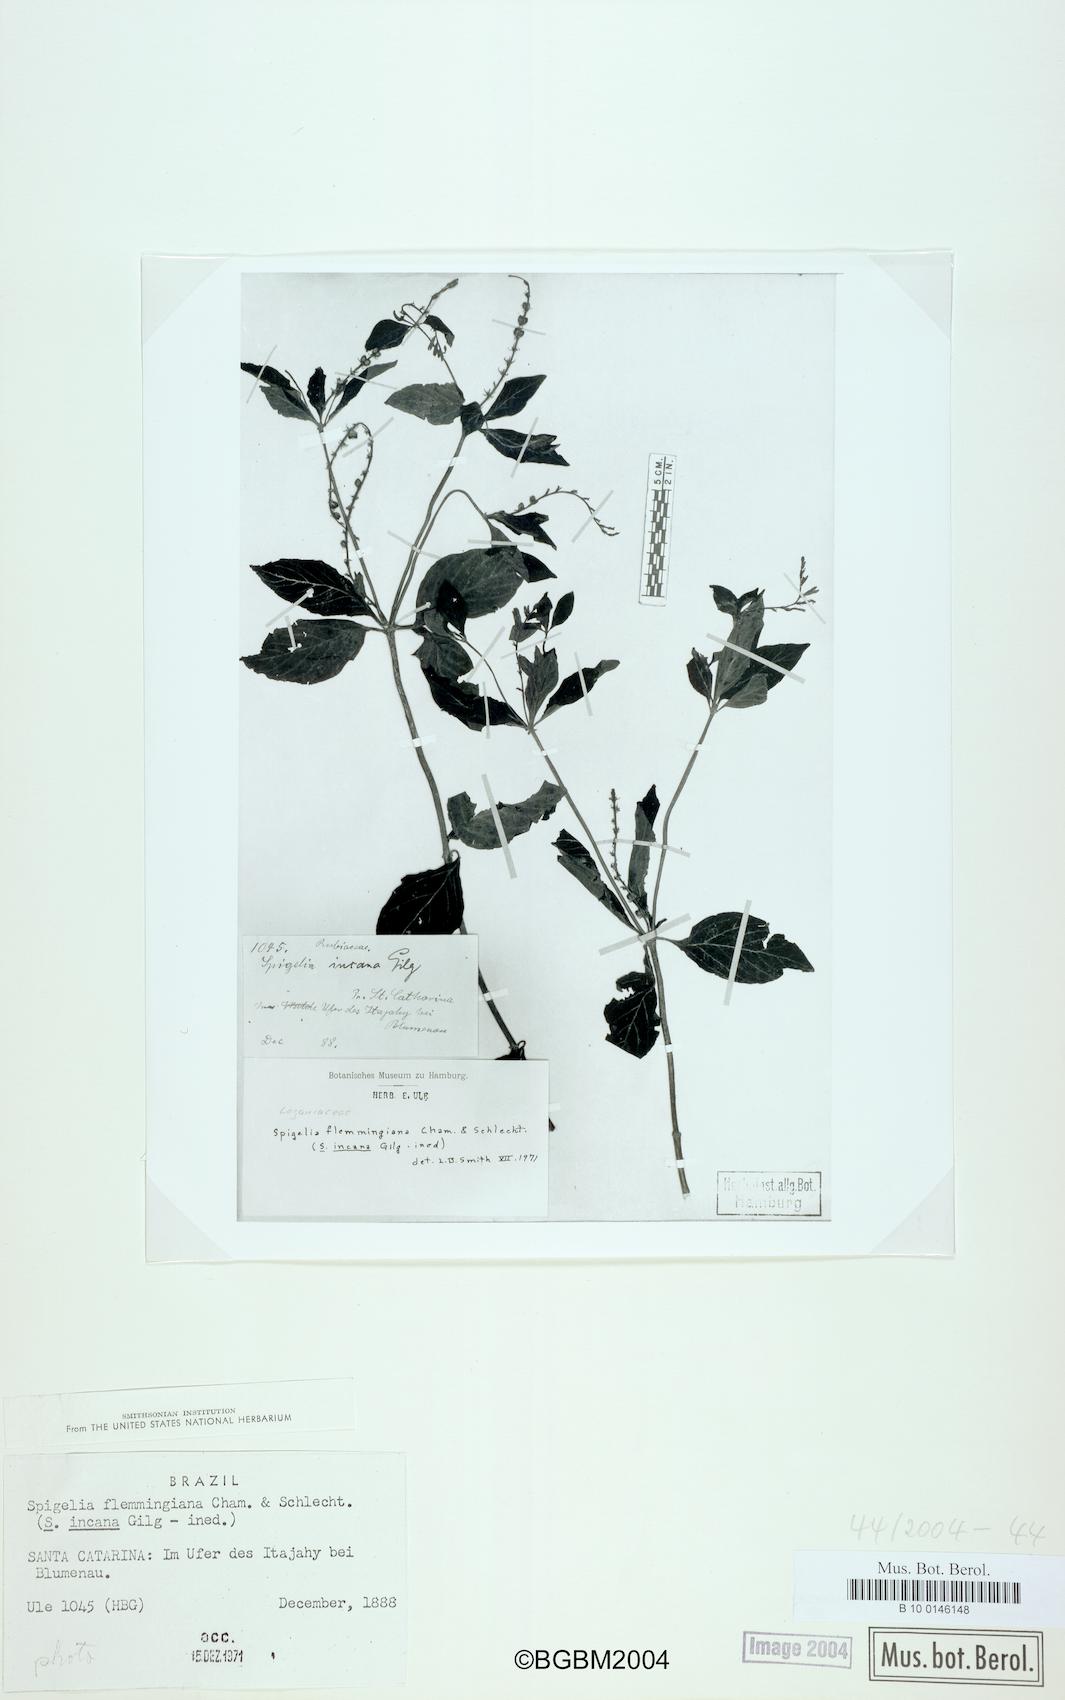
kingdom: Plantae
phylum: Tracheophyta
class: Magnoliopsida
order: Gentianales
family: Loganiaceae
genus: Spigelia
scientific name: Spigelia flemmingiana
